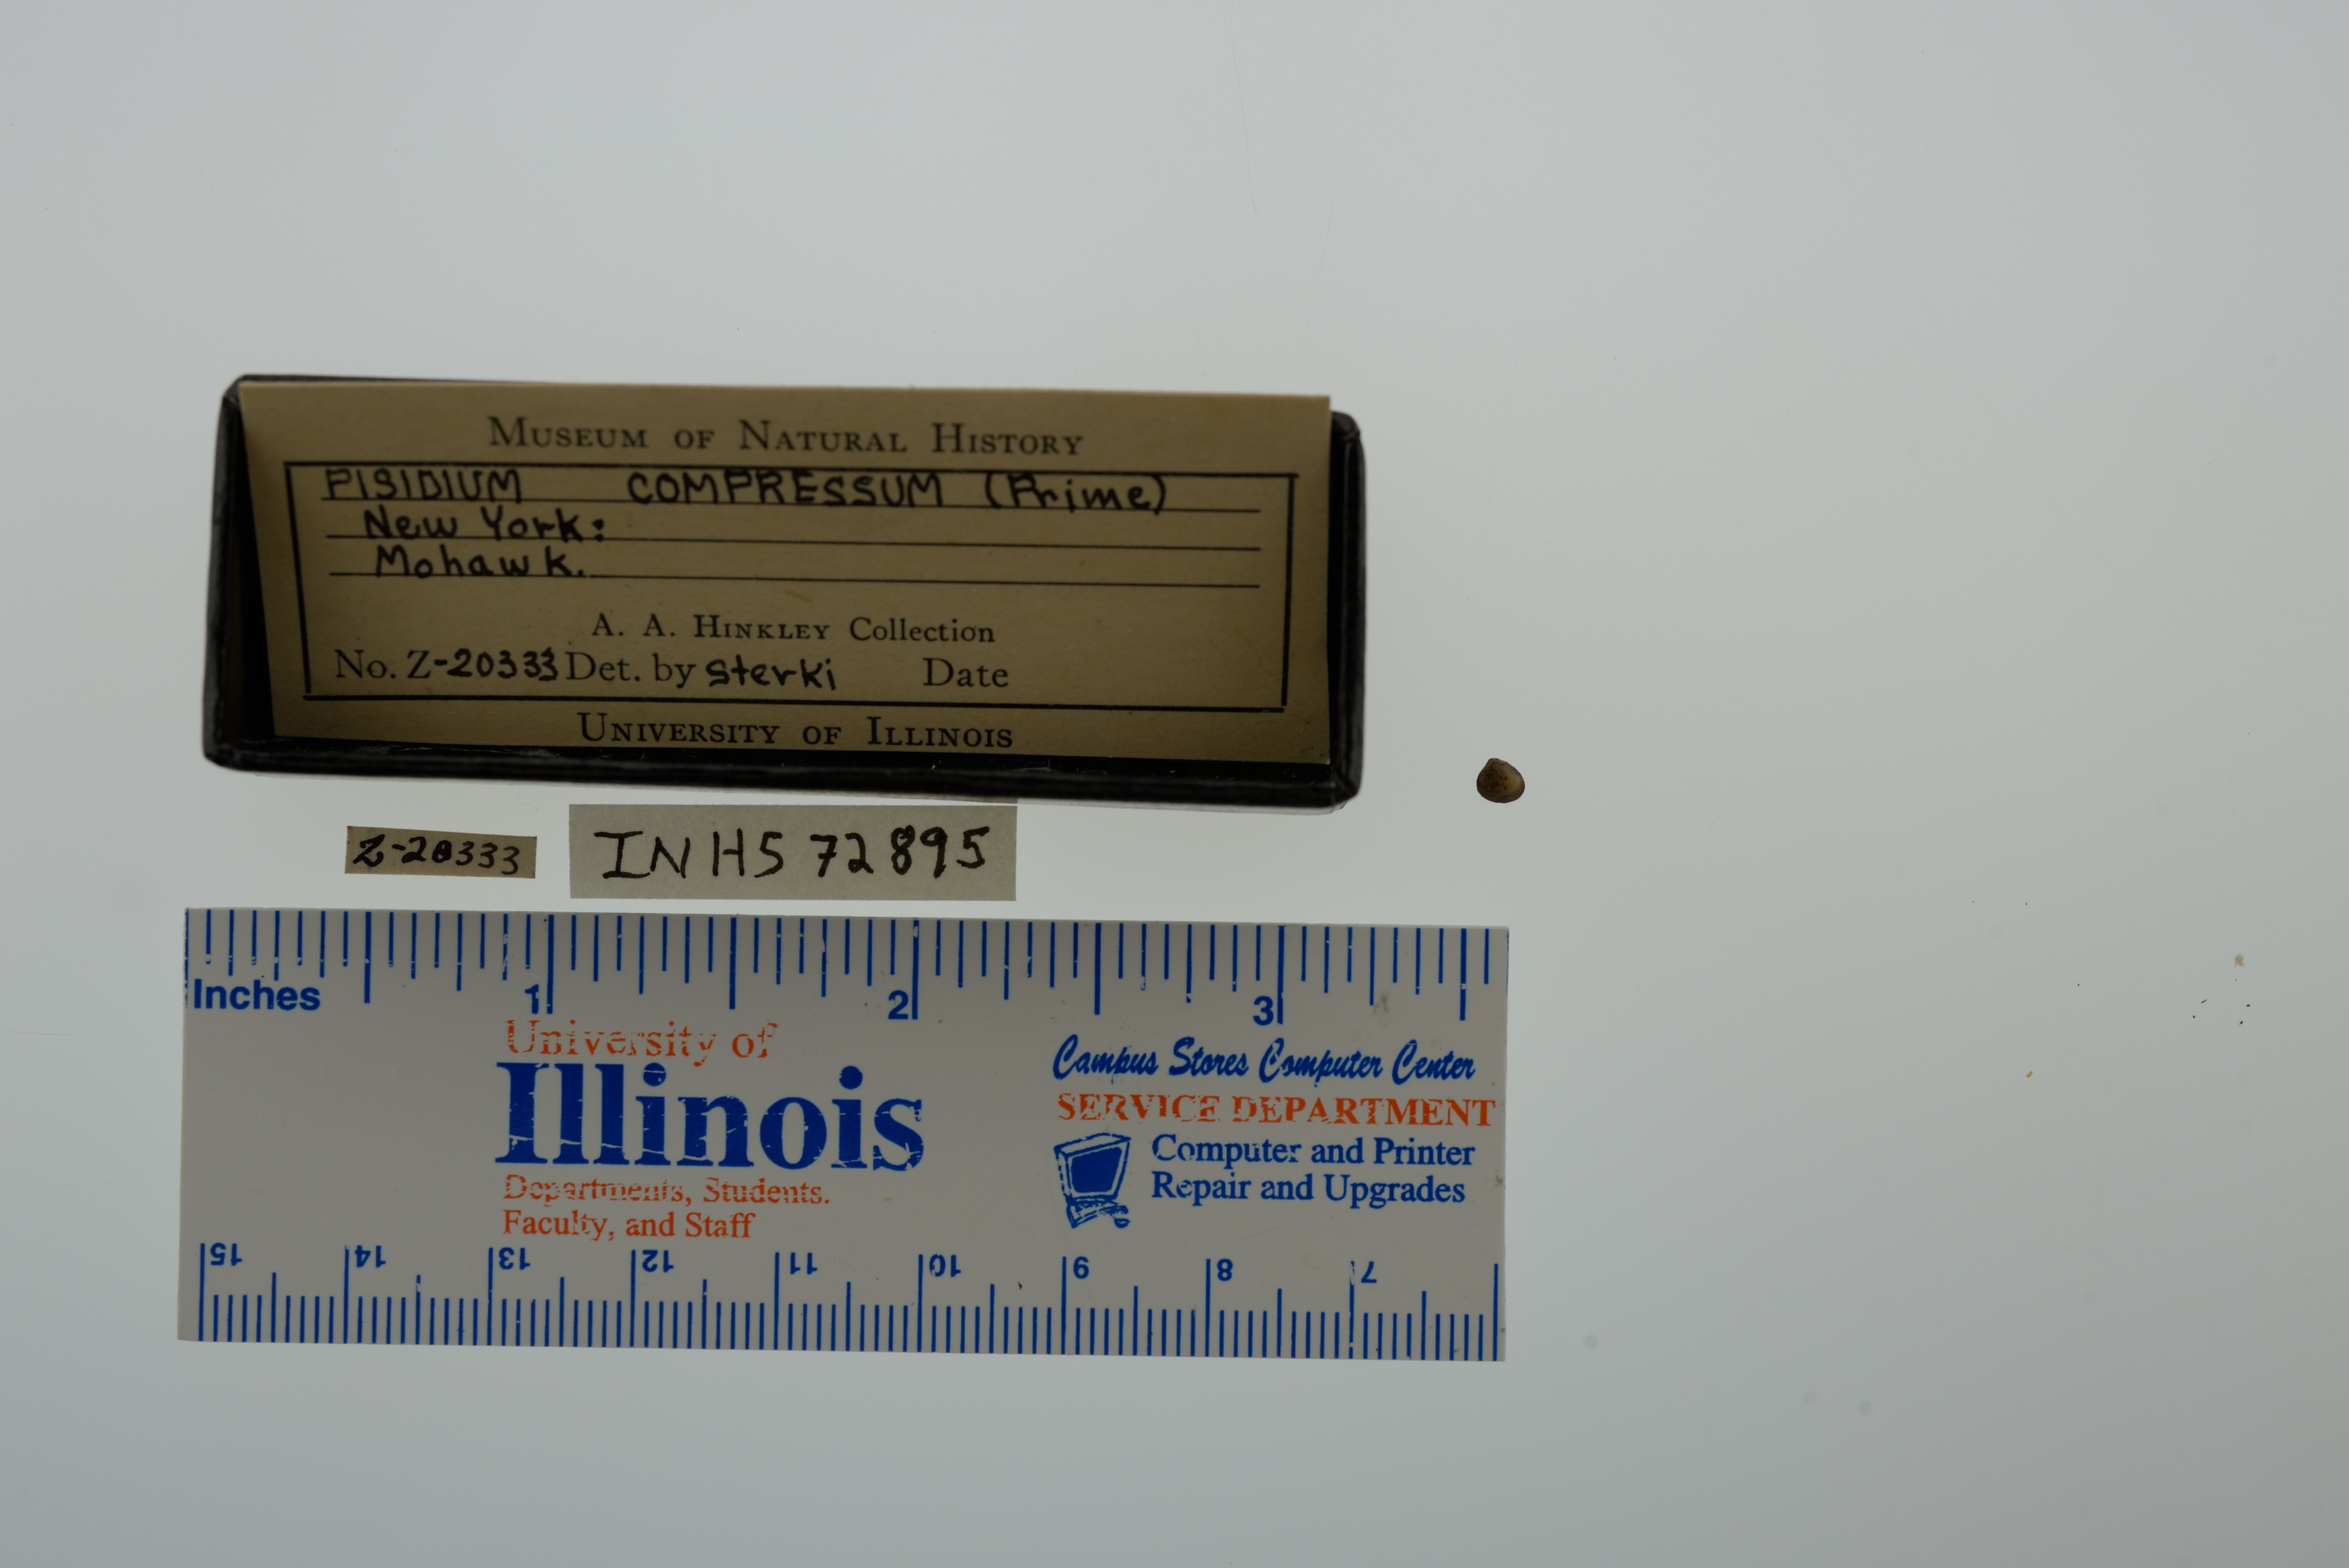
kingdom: Animalia
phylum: Mollusca
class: Bivalvia
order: Sphaeriida
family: Sphaeriidae
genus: Euglesa
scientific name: Euglesa compressa
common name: Ridgedbeak peaclam
